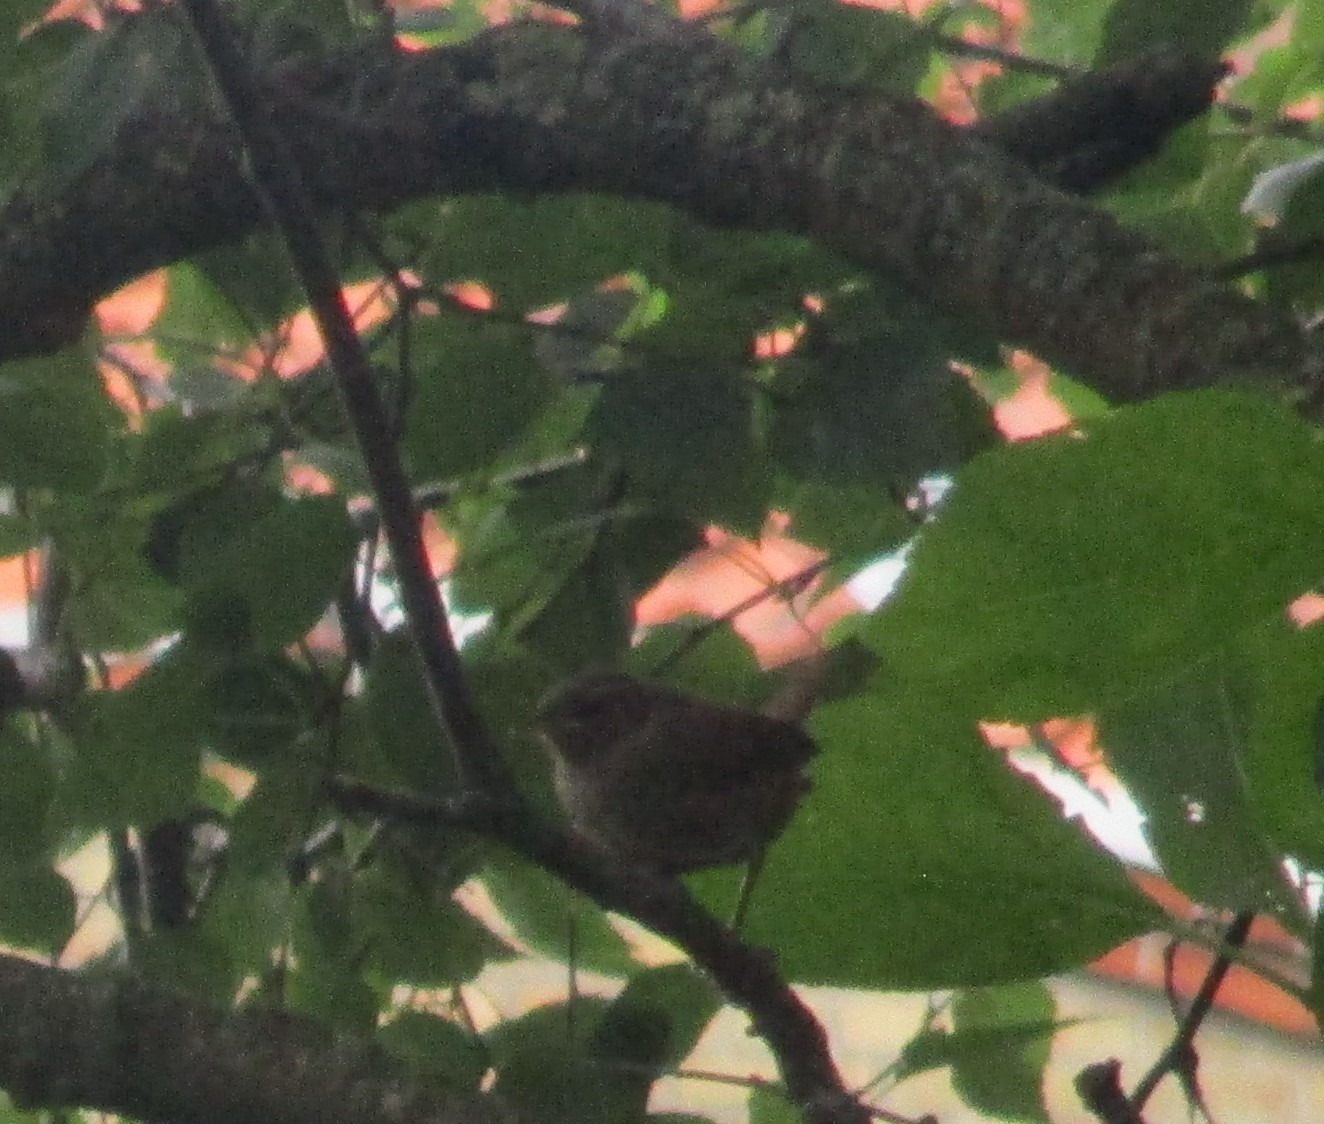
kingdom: Animalia
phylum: Chordata
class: Aves
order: Passeriformes
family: Troglodytidae
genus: Troglodytes
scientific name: Troglodytes troglodytes
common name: Gærdesmutte
